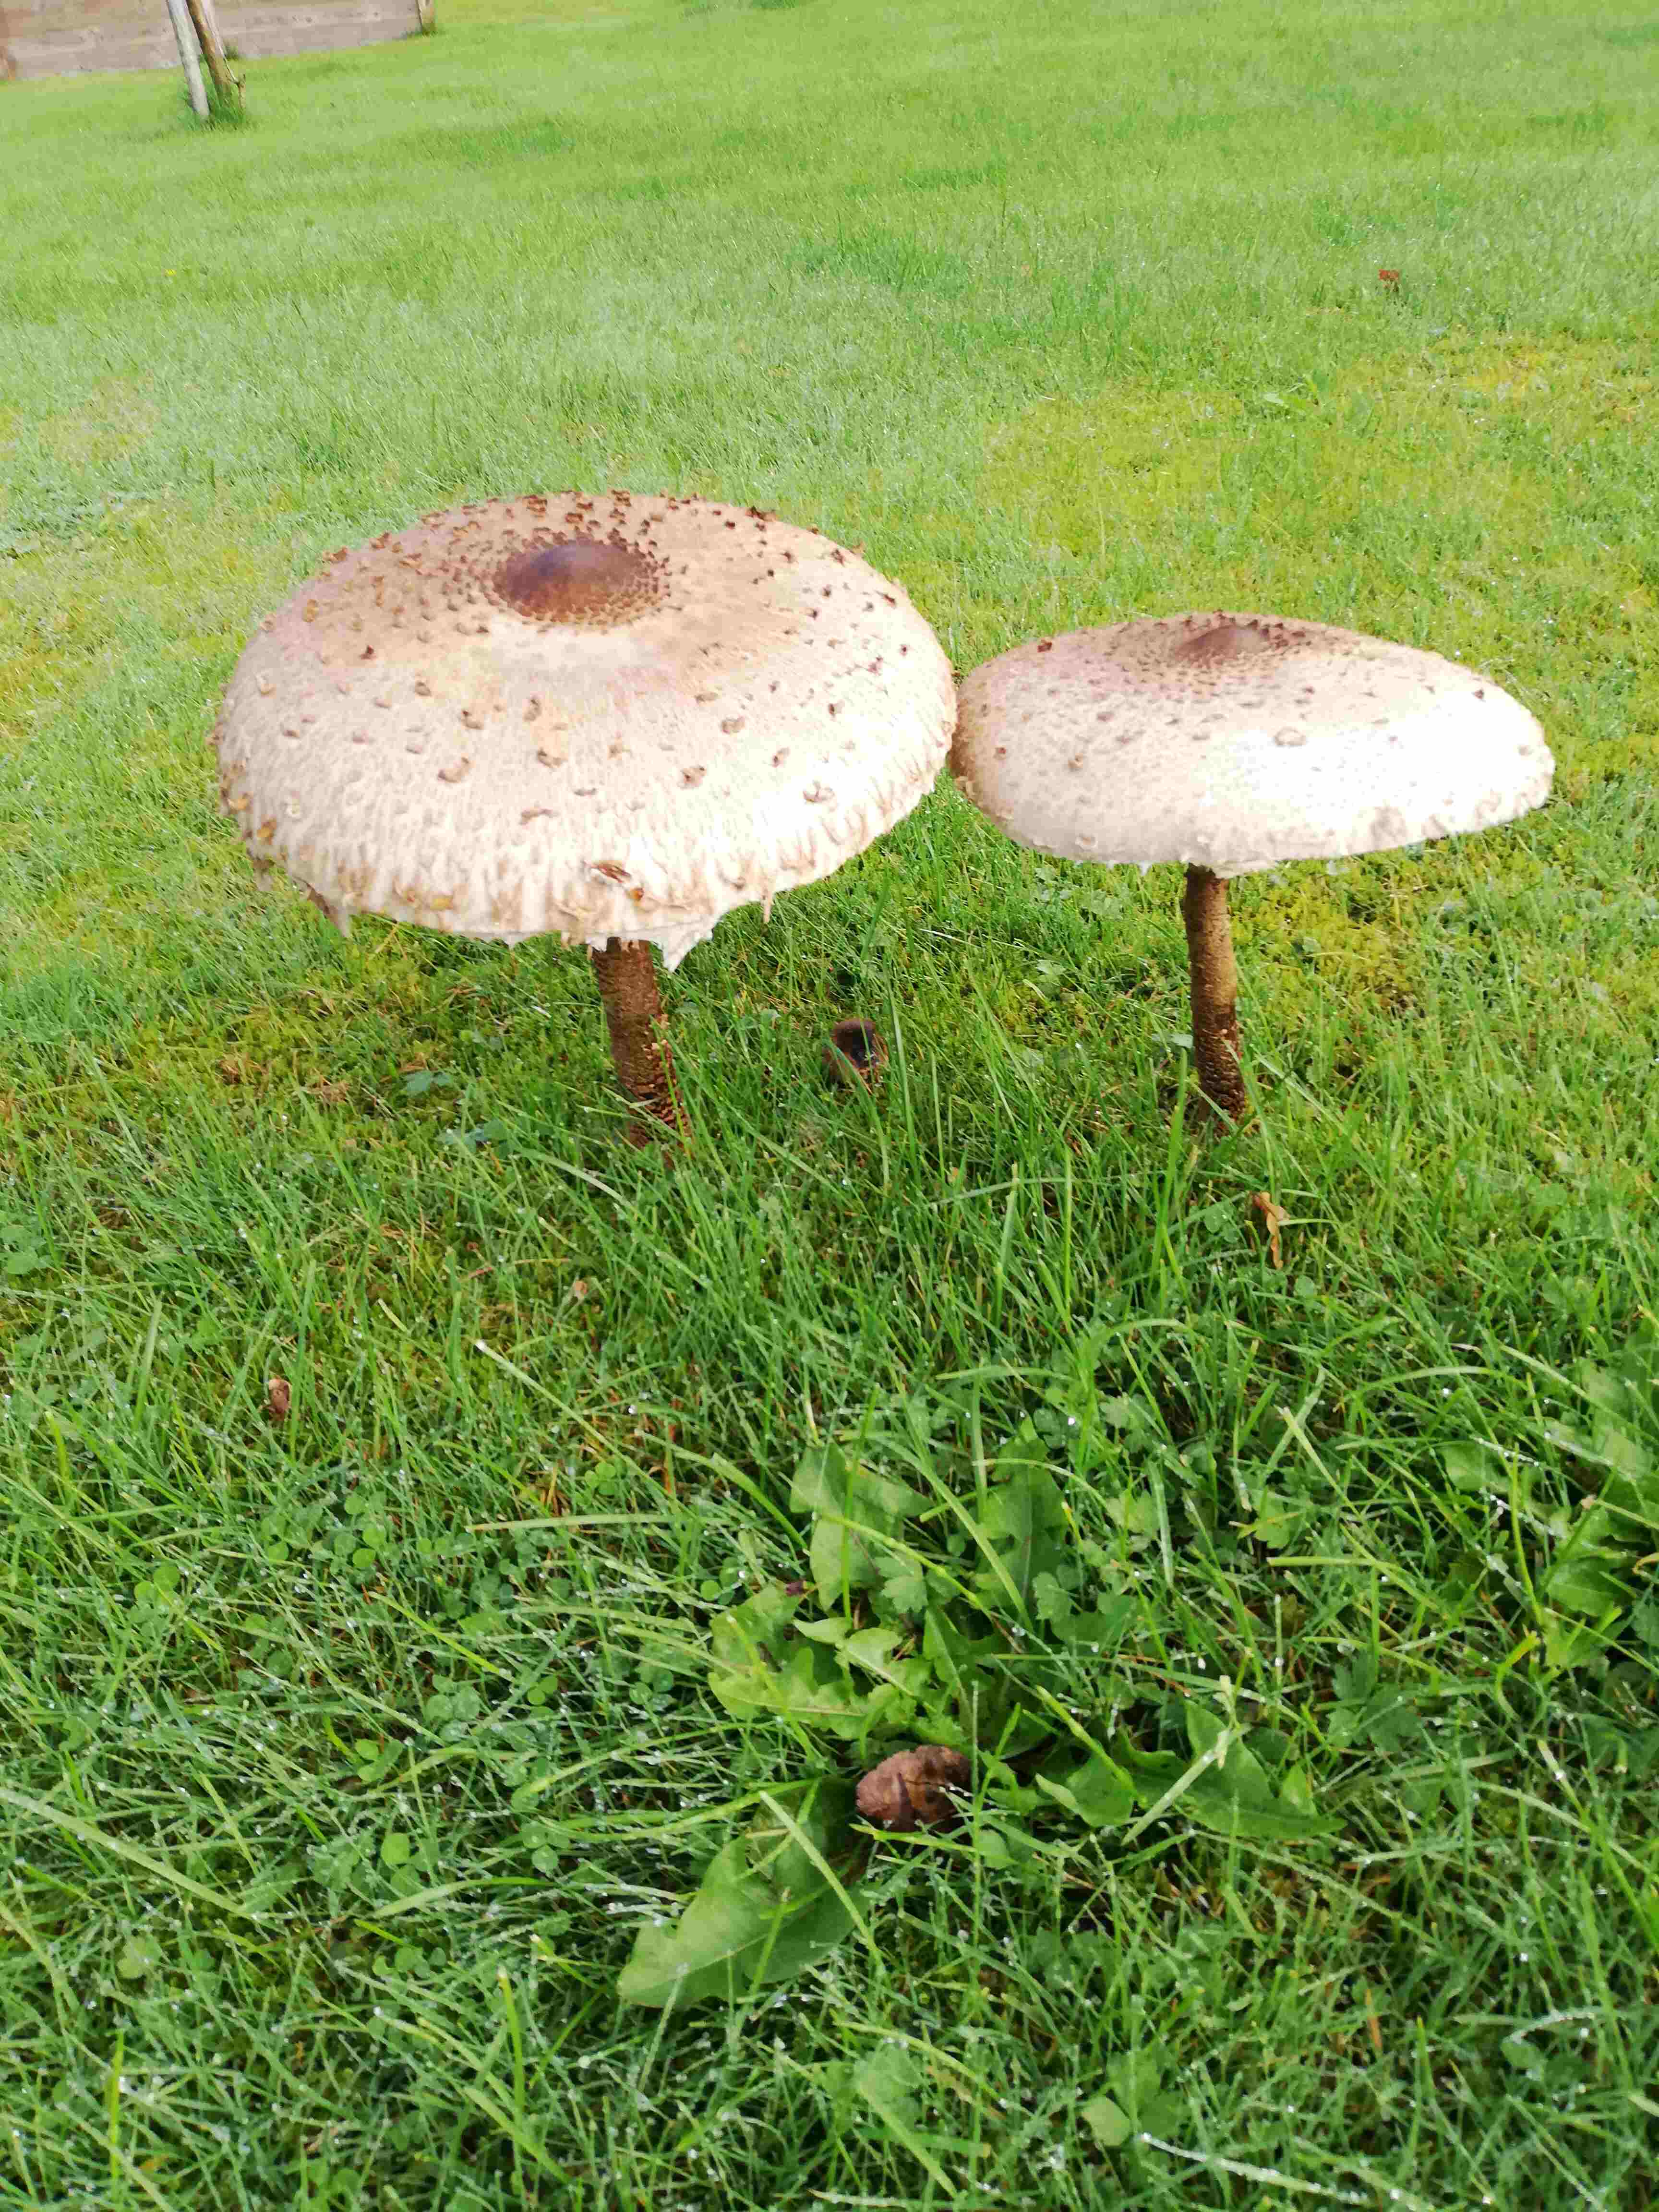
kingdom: Fungi
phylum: Basidiomycota
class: Agaricomycetes
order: Agaricales
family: Agaricaceae
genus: Macrolepiota
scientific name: Macrolepiota procera
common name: stor kæmpeparasolhat
